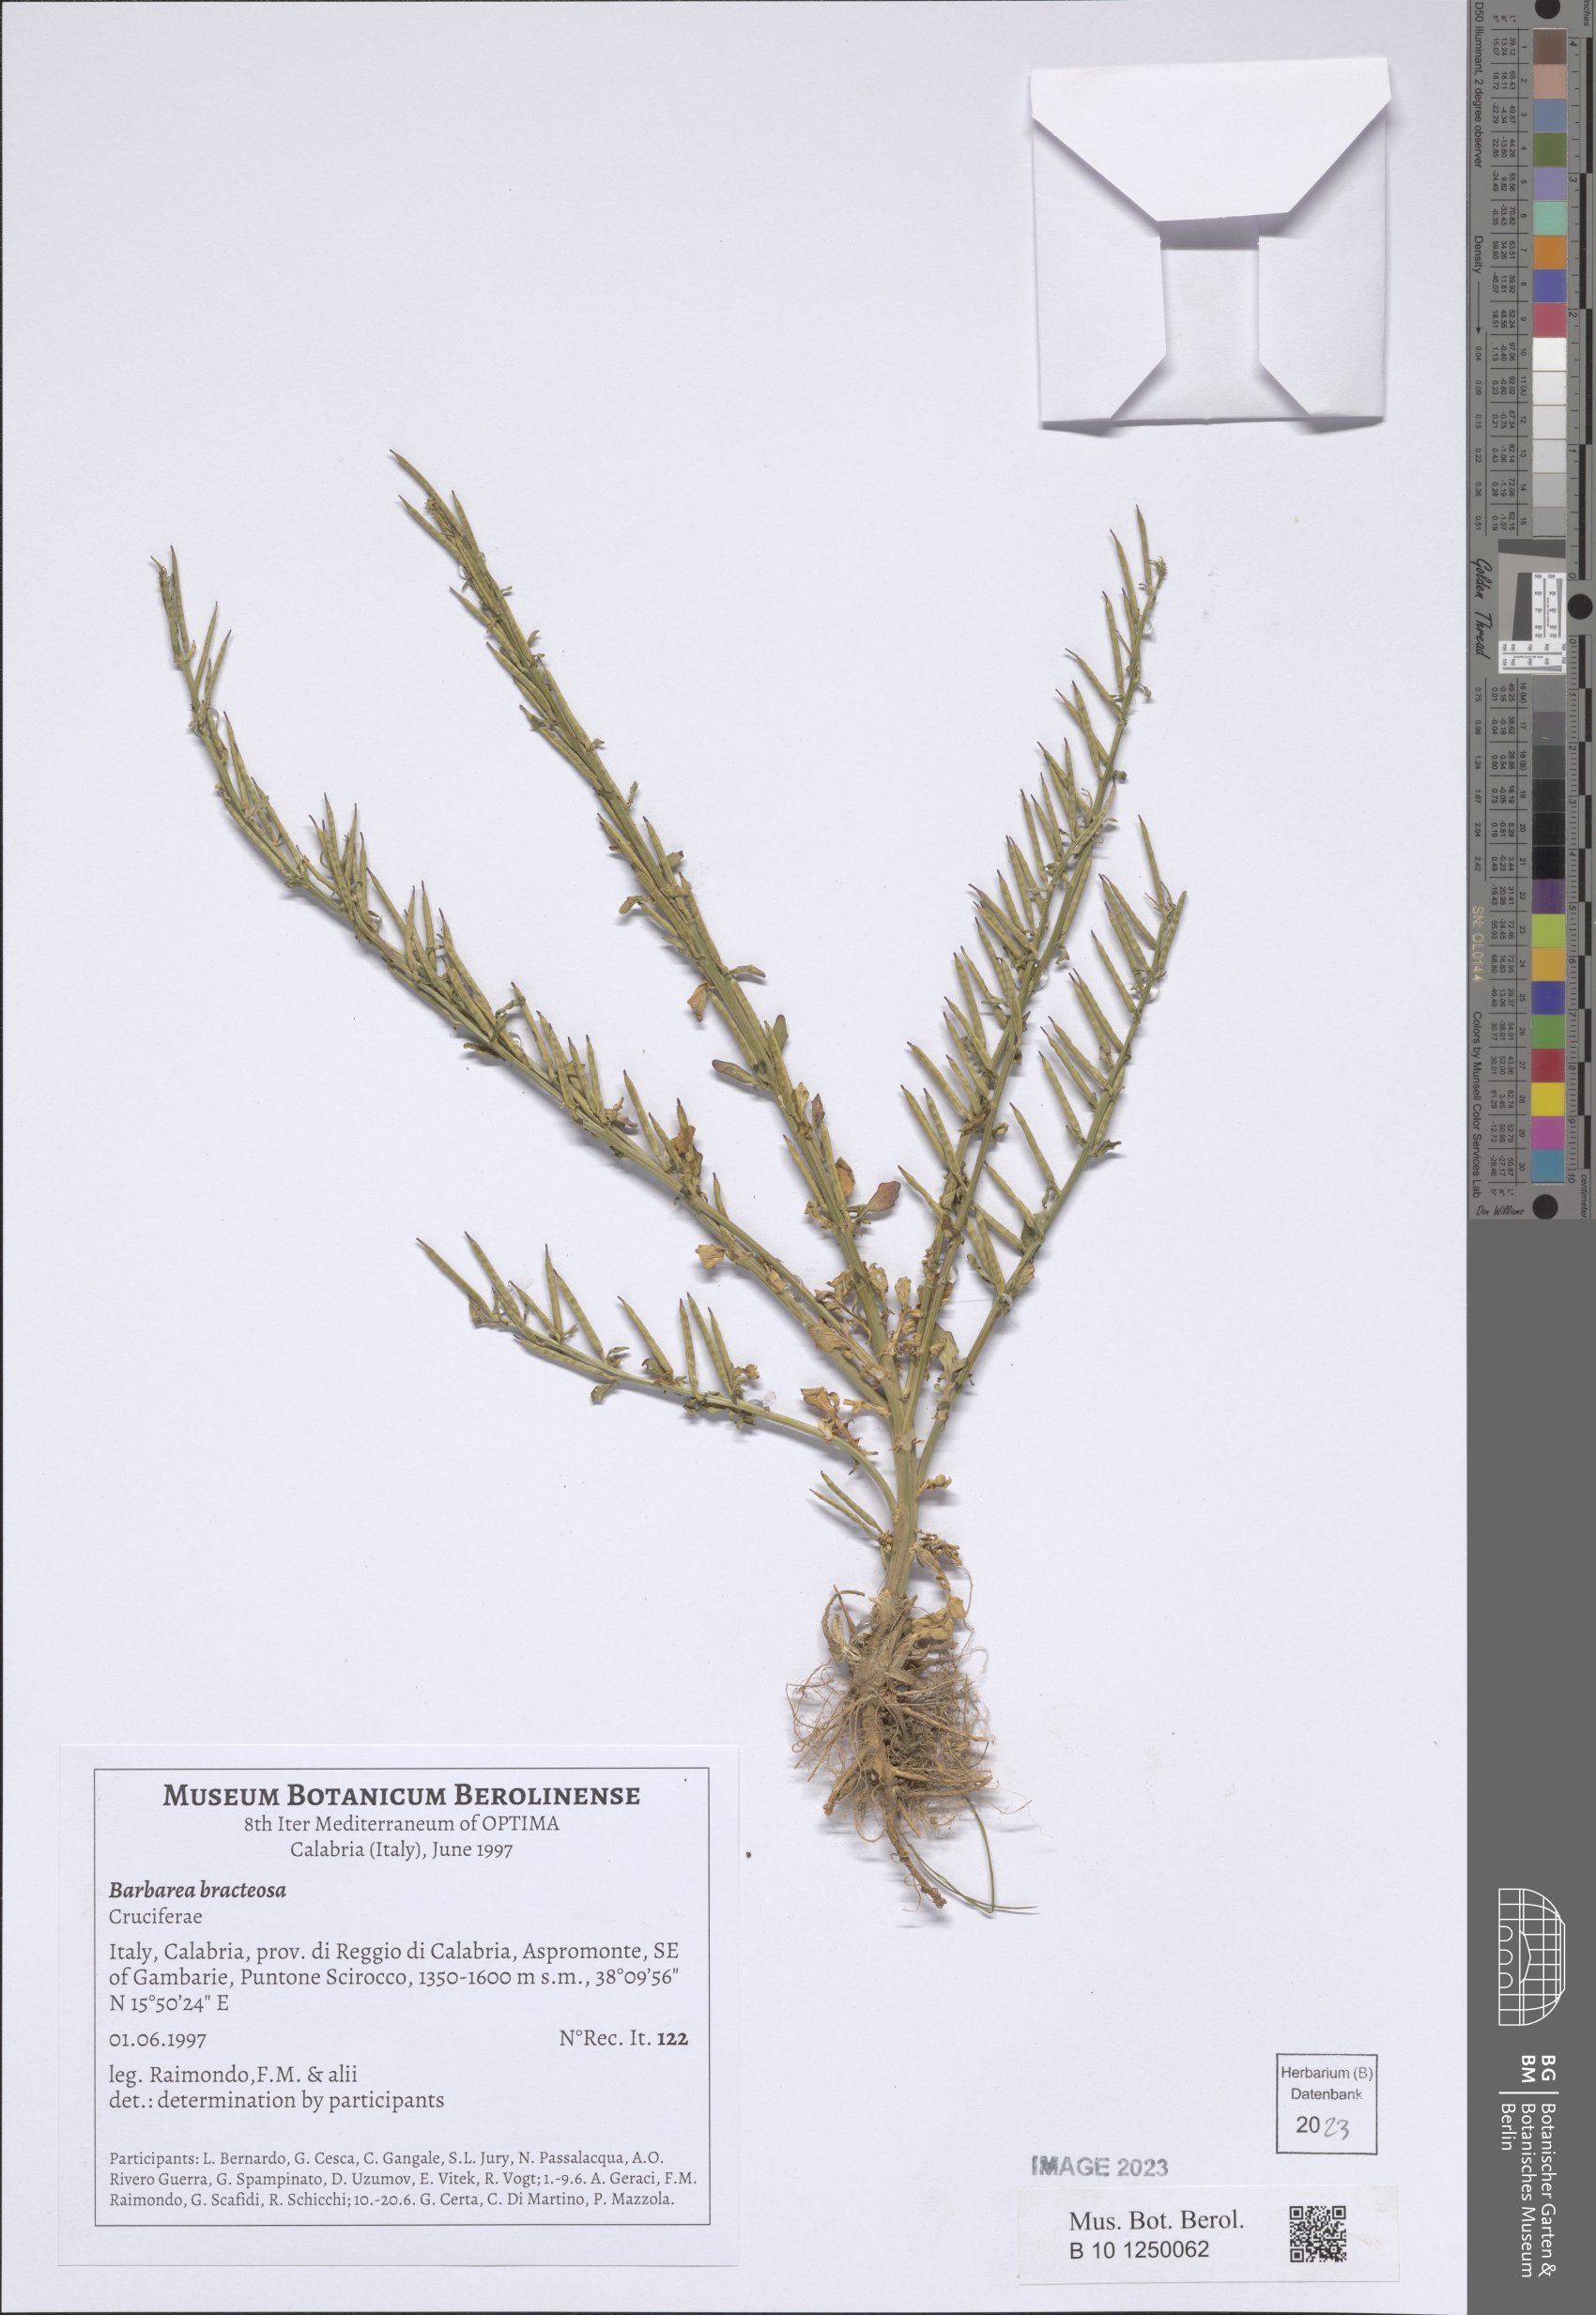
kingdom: Plantae
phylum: Tracheophyta
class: Magnoliopsida
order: Brassicales
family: Brassicaceae
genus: Barbarea
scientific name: Barbarea bracteosa
